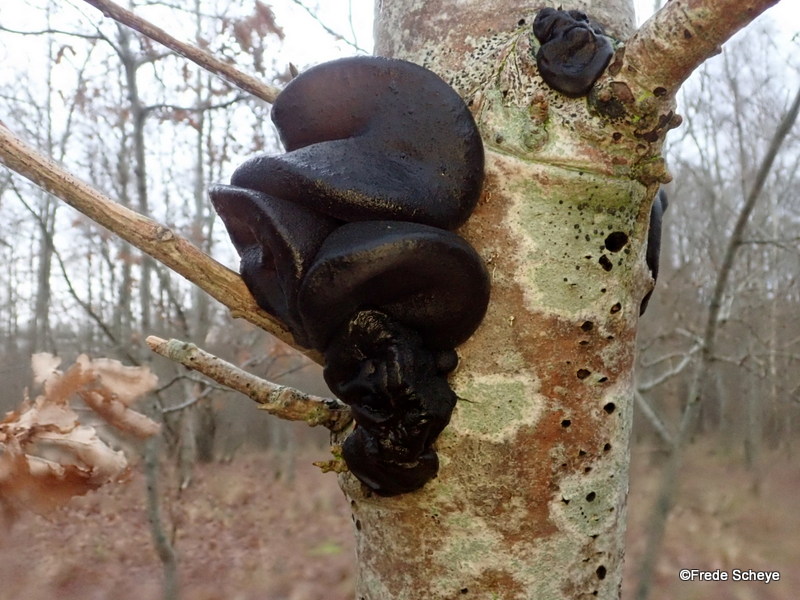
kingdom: Fungi
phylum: Basidiomycota
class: Agaricomycetes
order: Auriculariales
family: Auriculariaceae
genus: Exidia
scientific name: Exidia glandulosa
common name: ege-bævretop
